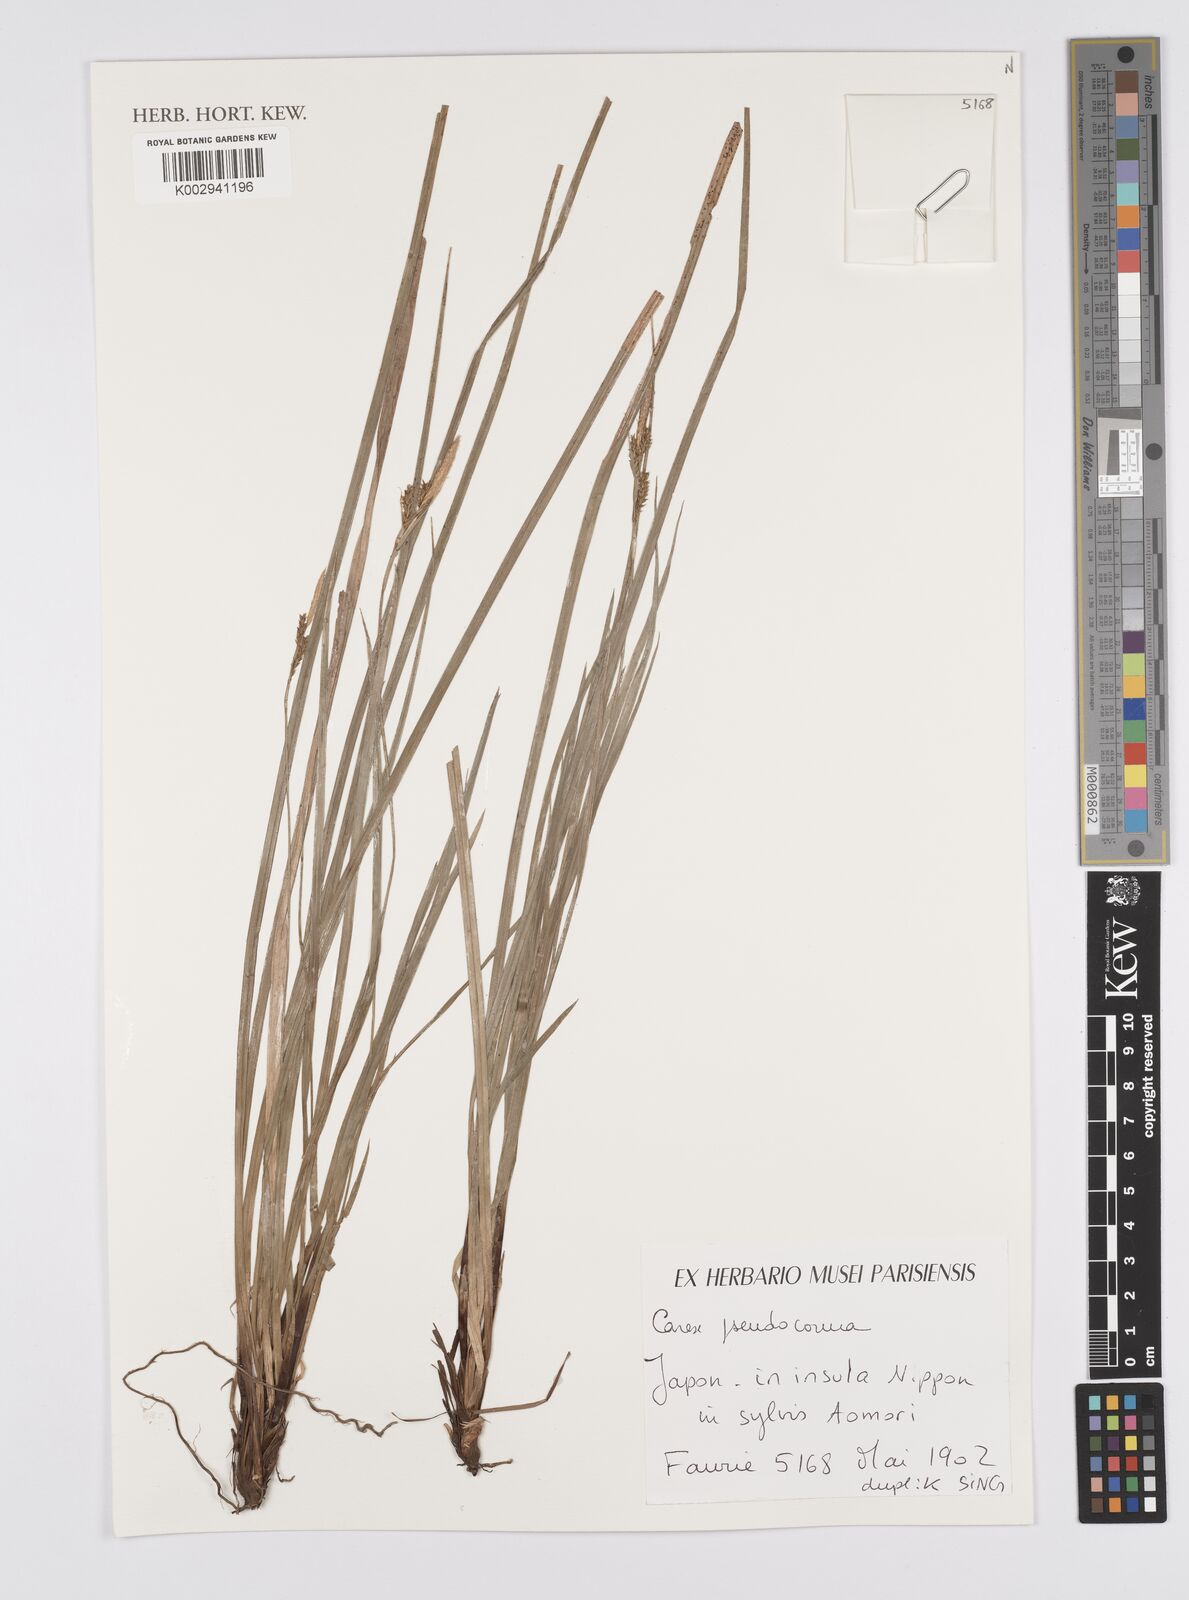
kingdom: Plantae
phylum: Tracheophyta
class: Liliopsida
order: Poales
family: Cyperaceae
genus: Carex
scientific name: Carex pisiformis
